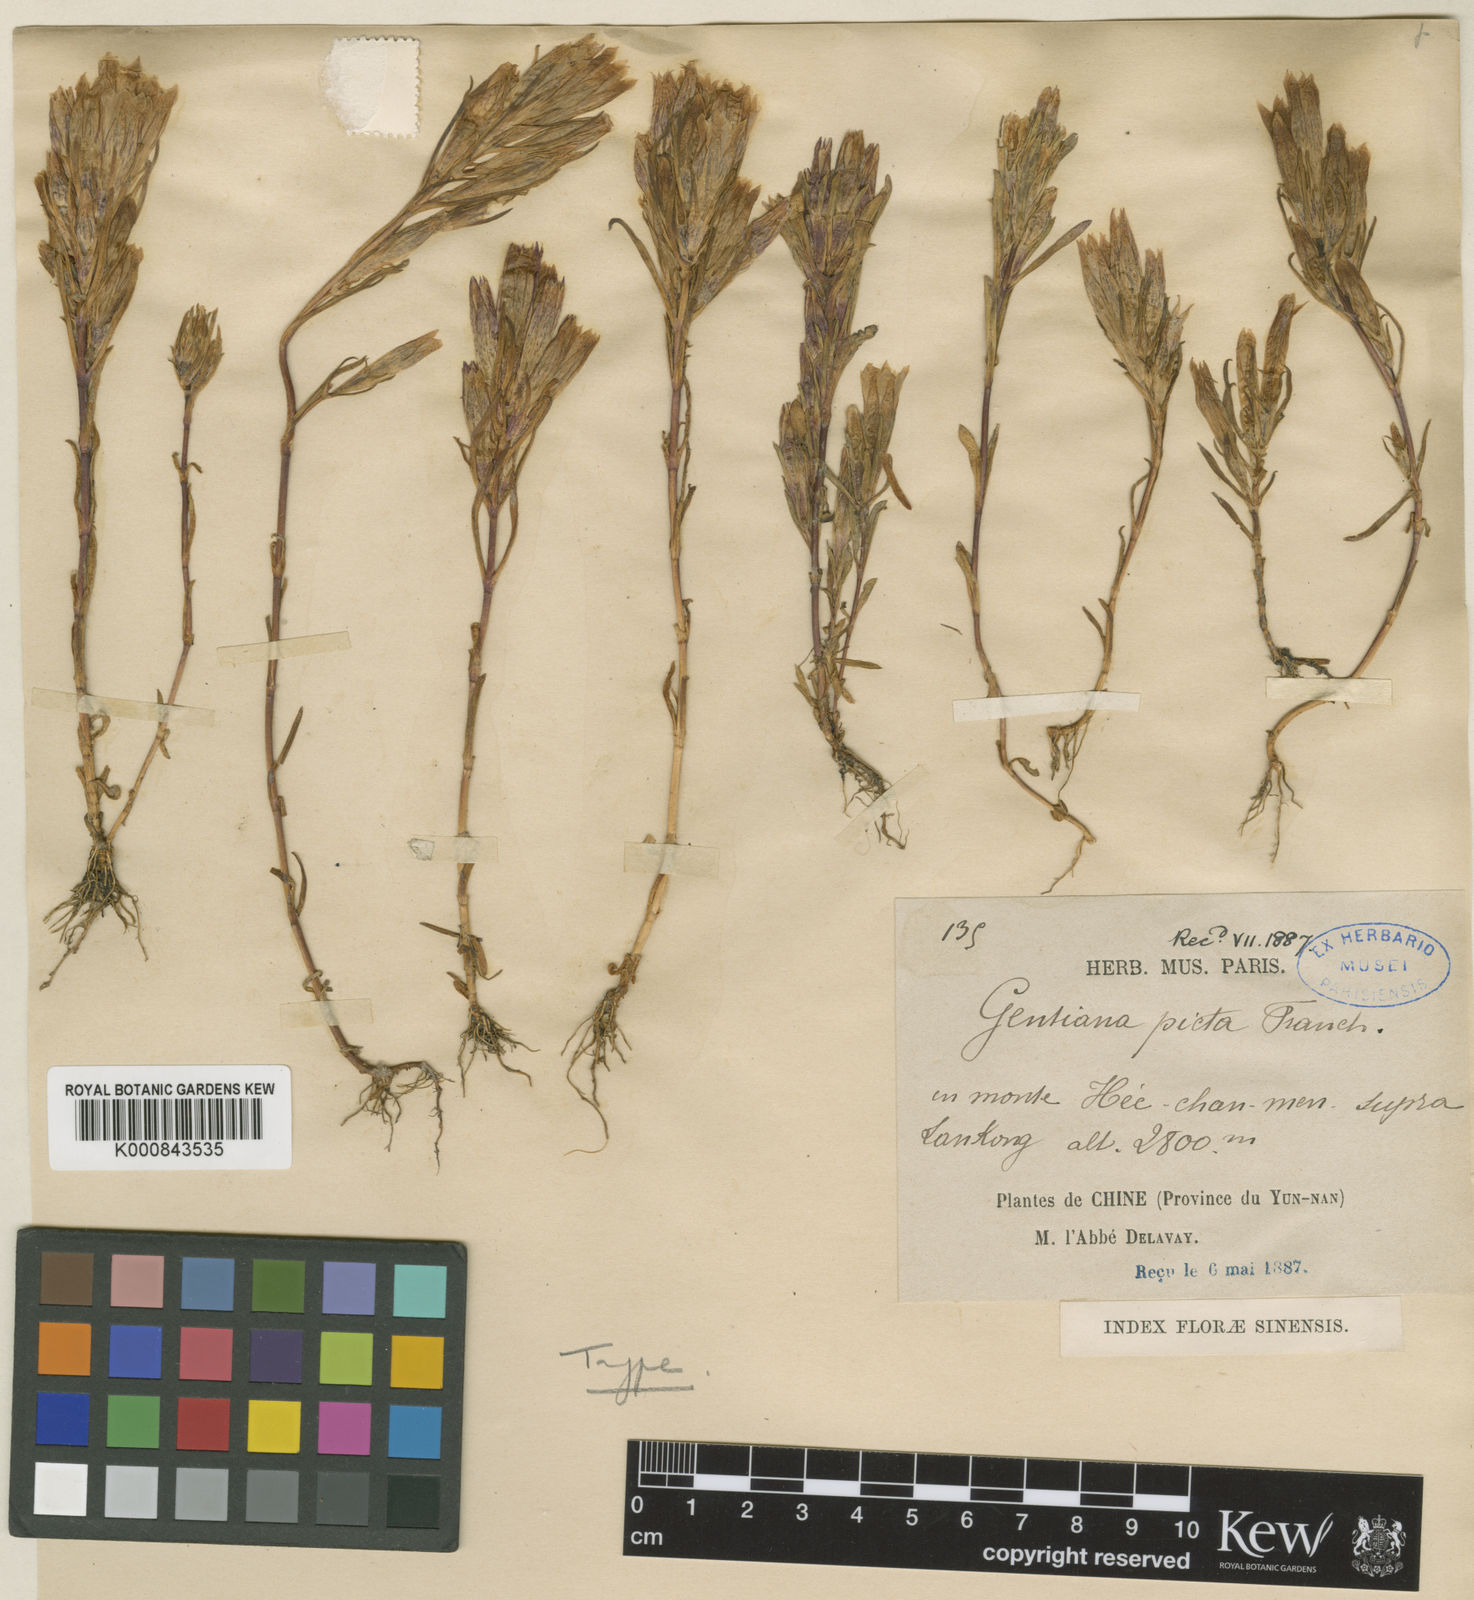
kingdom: Plantae
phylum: Tracheophyta
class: Magnoliopsida
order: Gentianales
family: Gentianaceae
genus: Gentiana
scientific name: Gentiana picta
